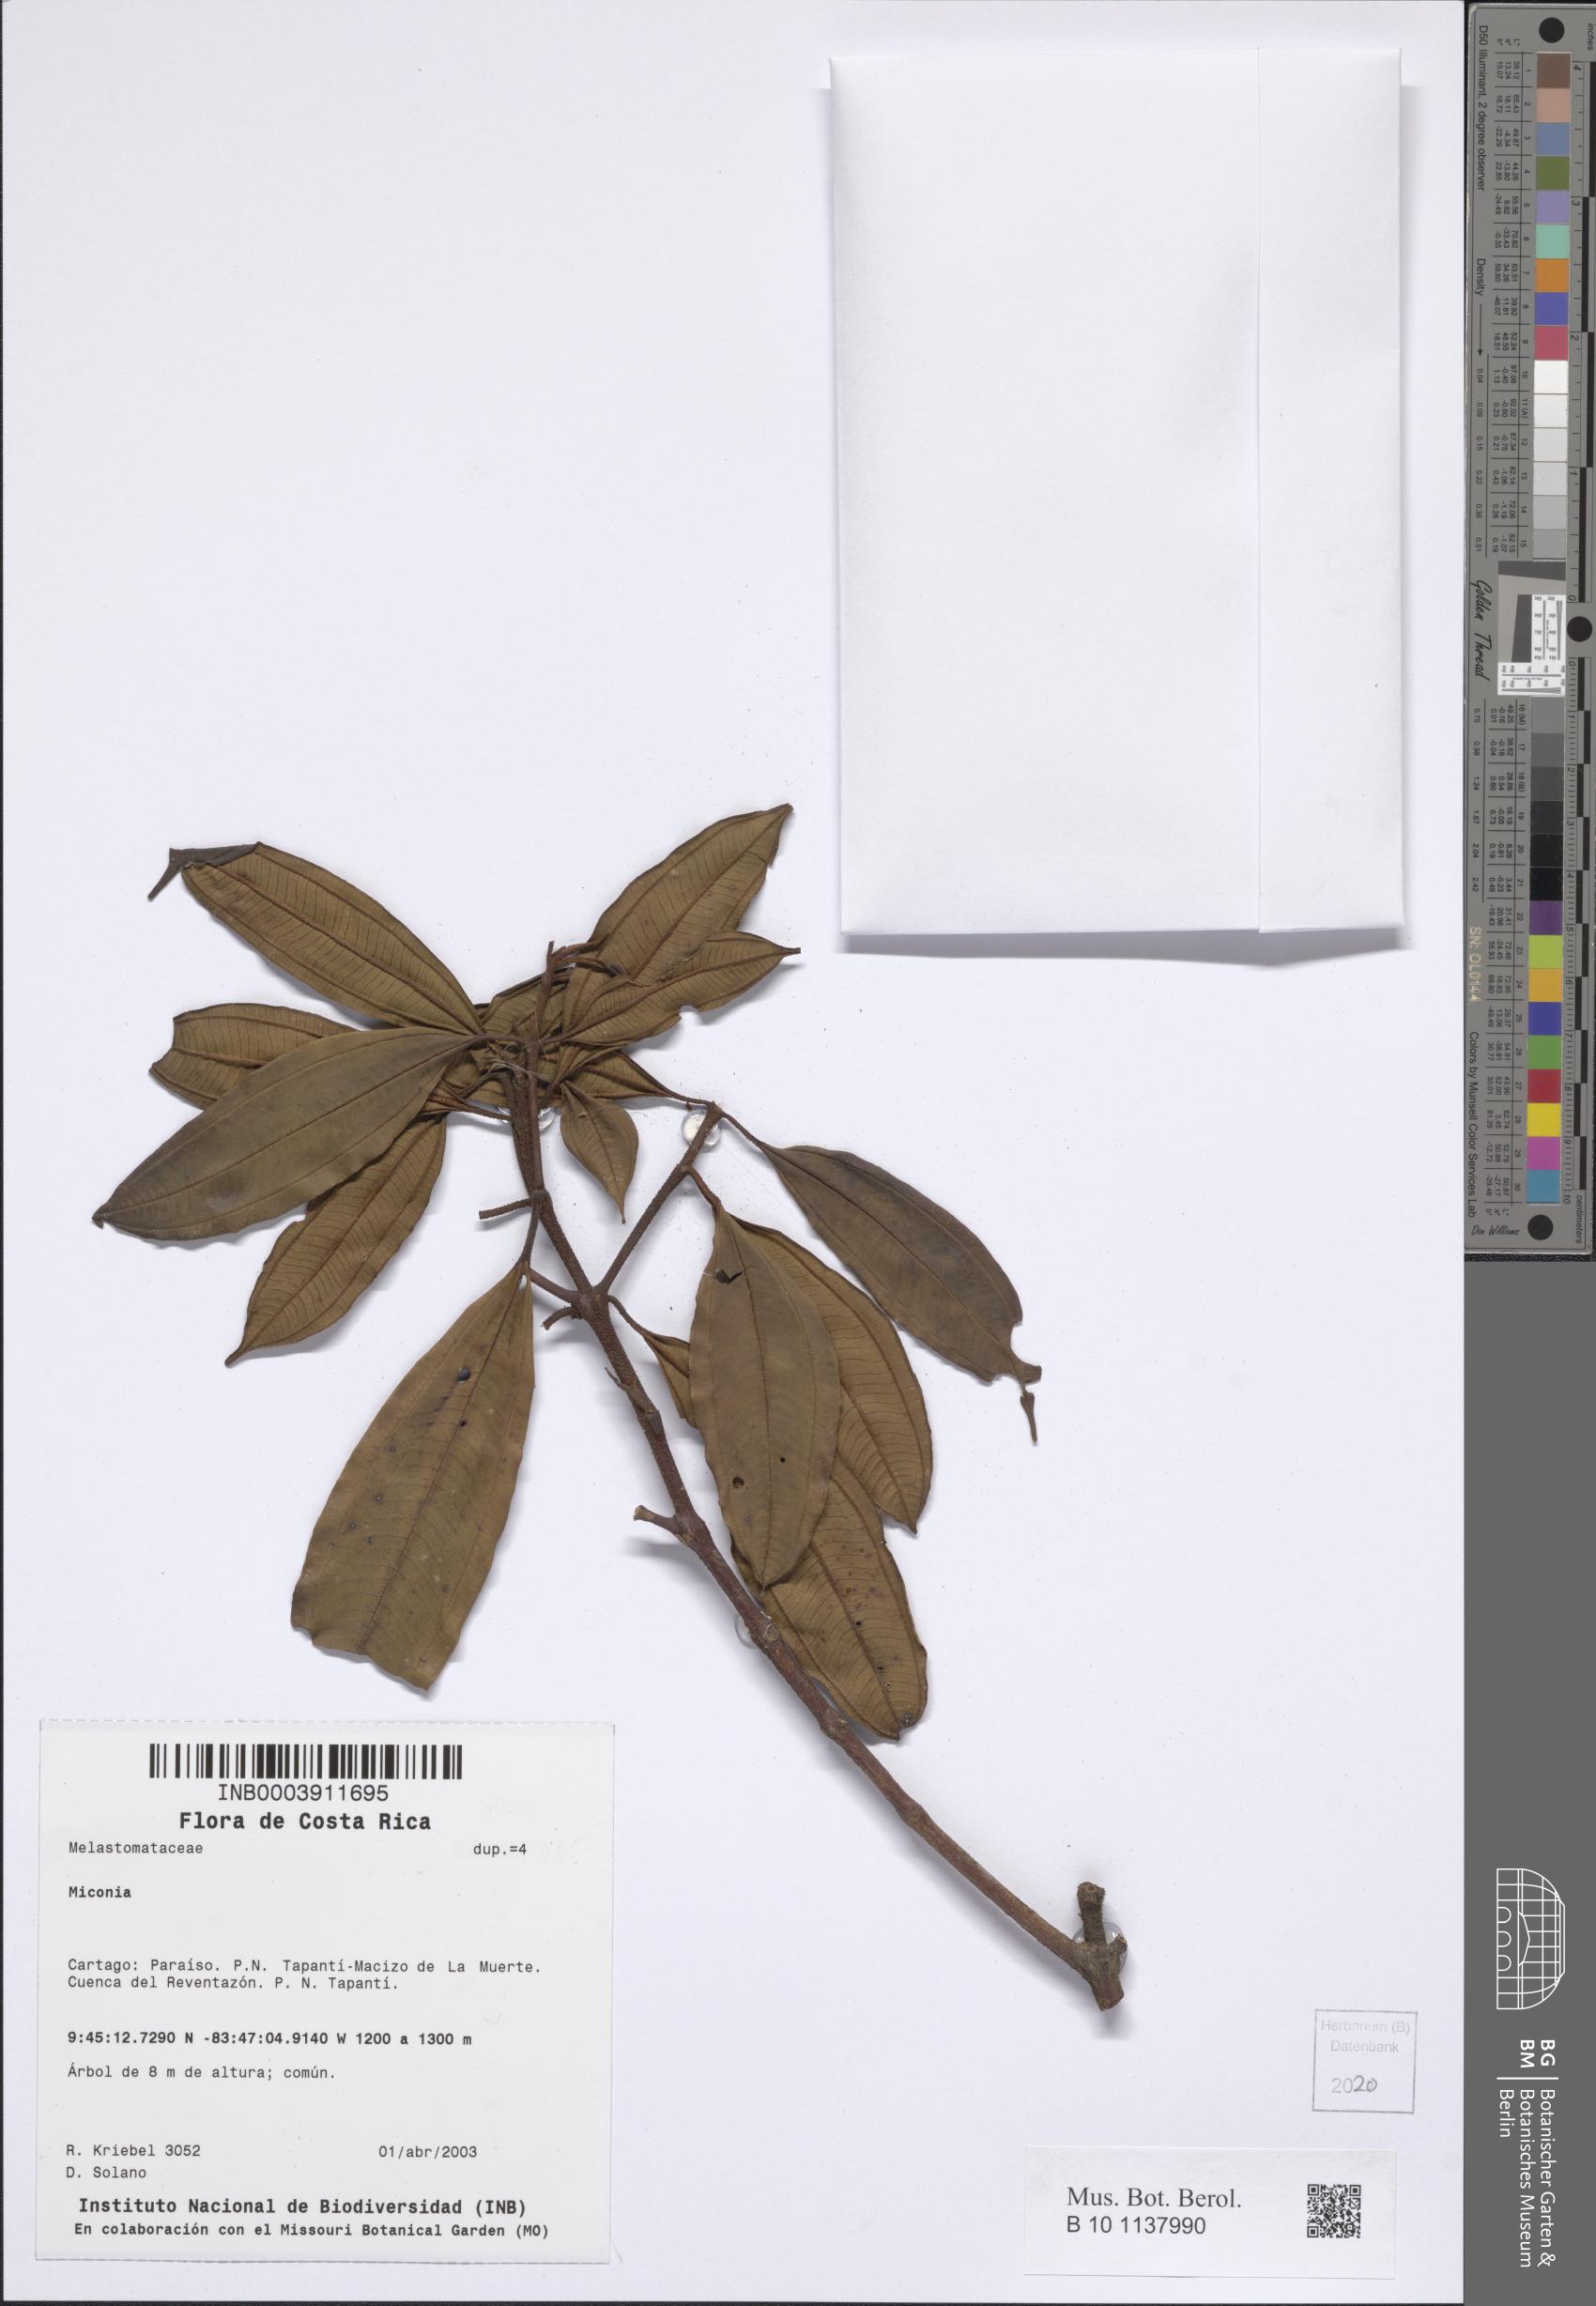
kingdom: Plantae
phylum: Tracheophyta
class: Magnoliopsida
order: Myrtales
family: Melastomataceae
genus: Miconia
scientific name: Miconia
